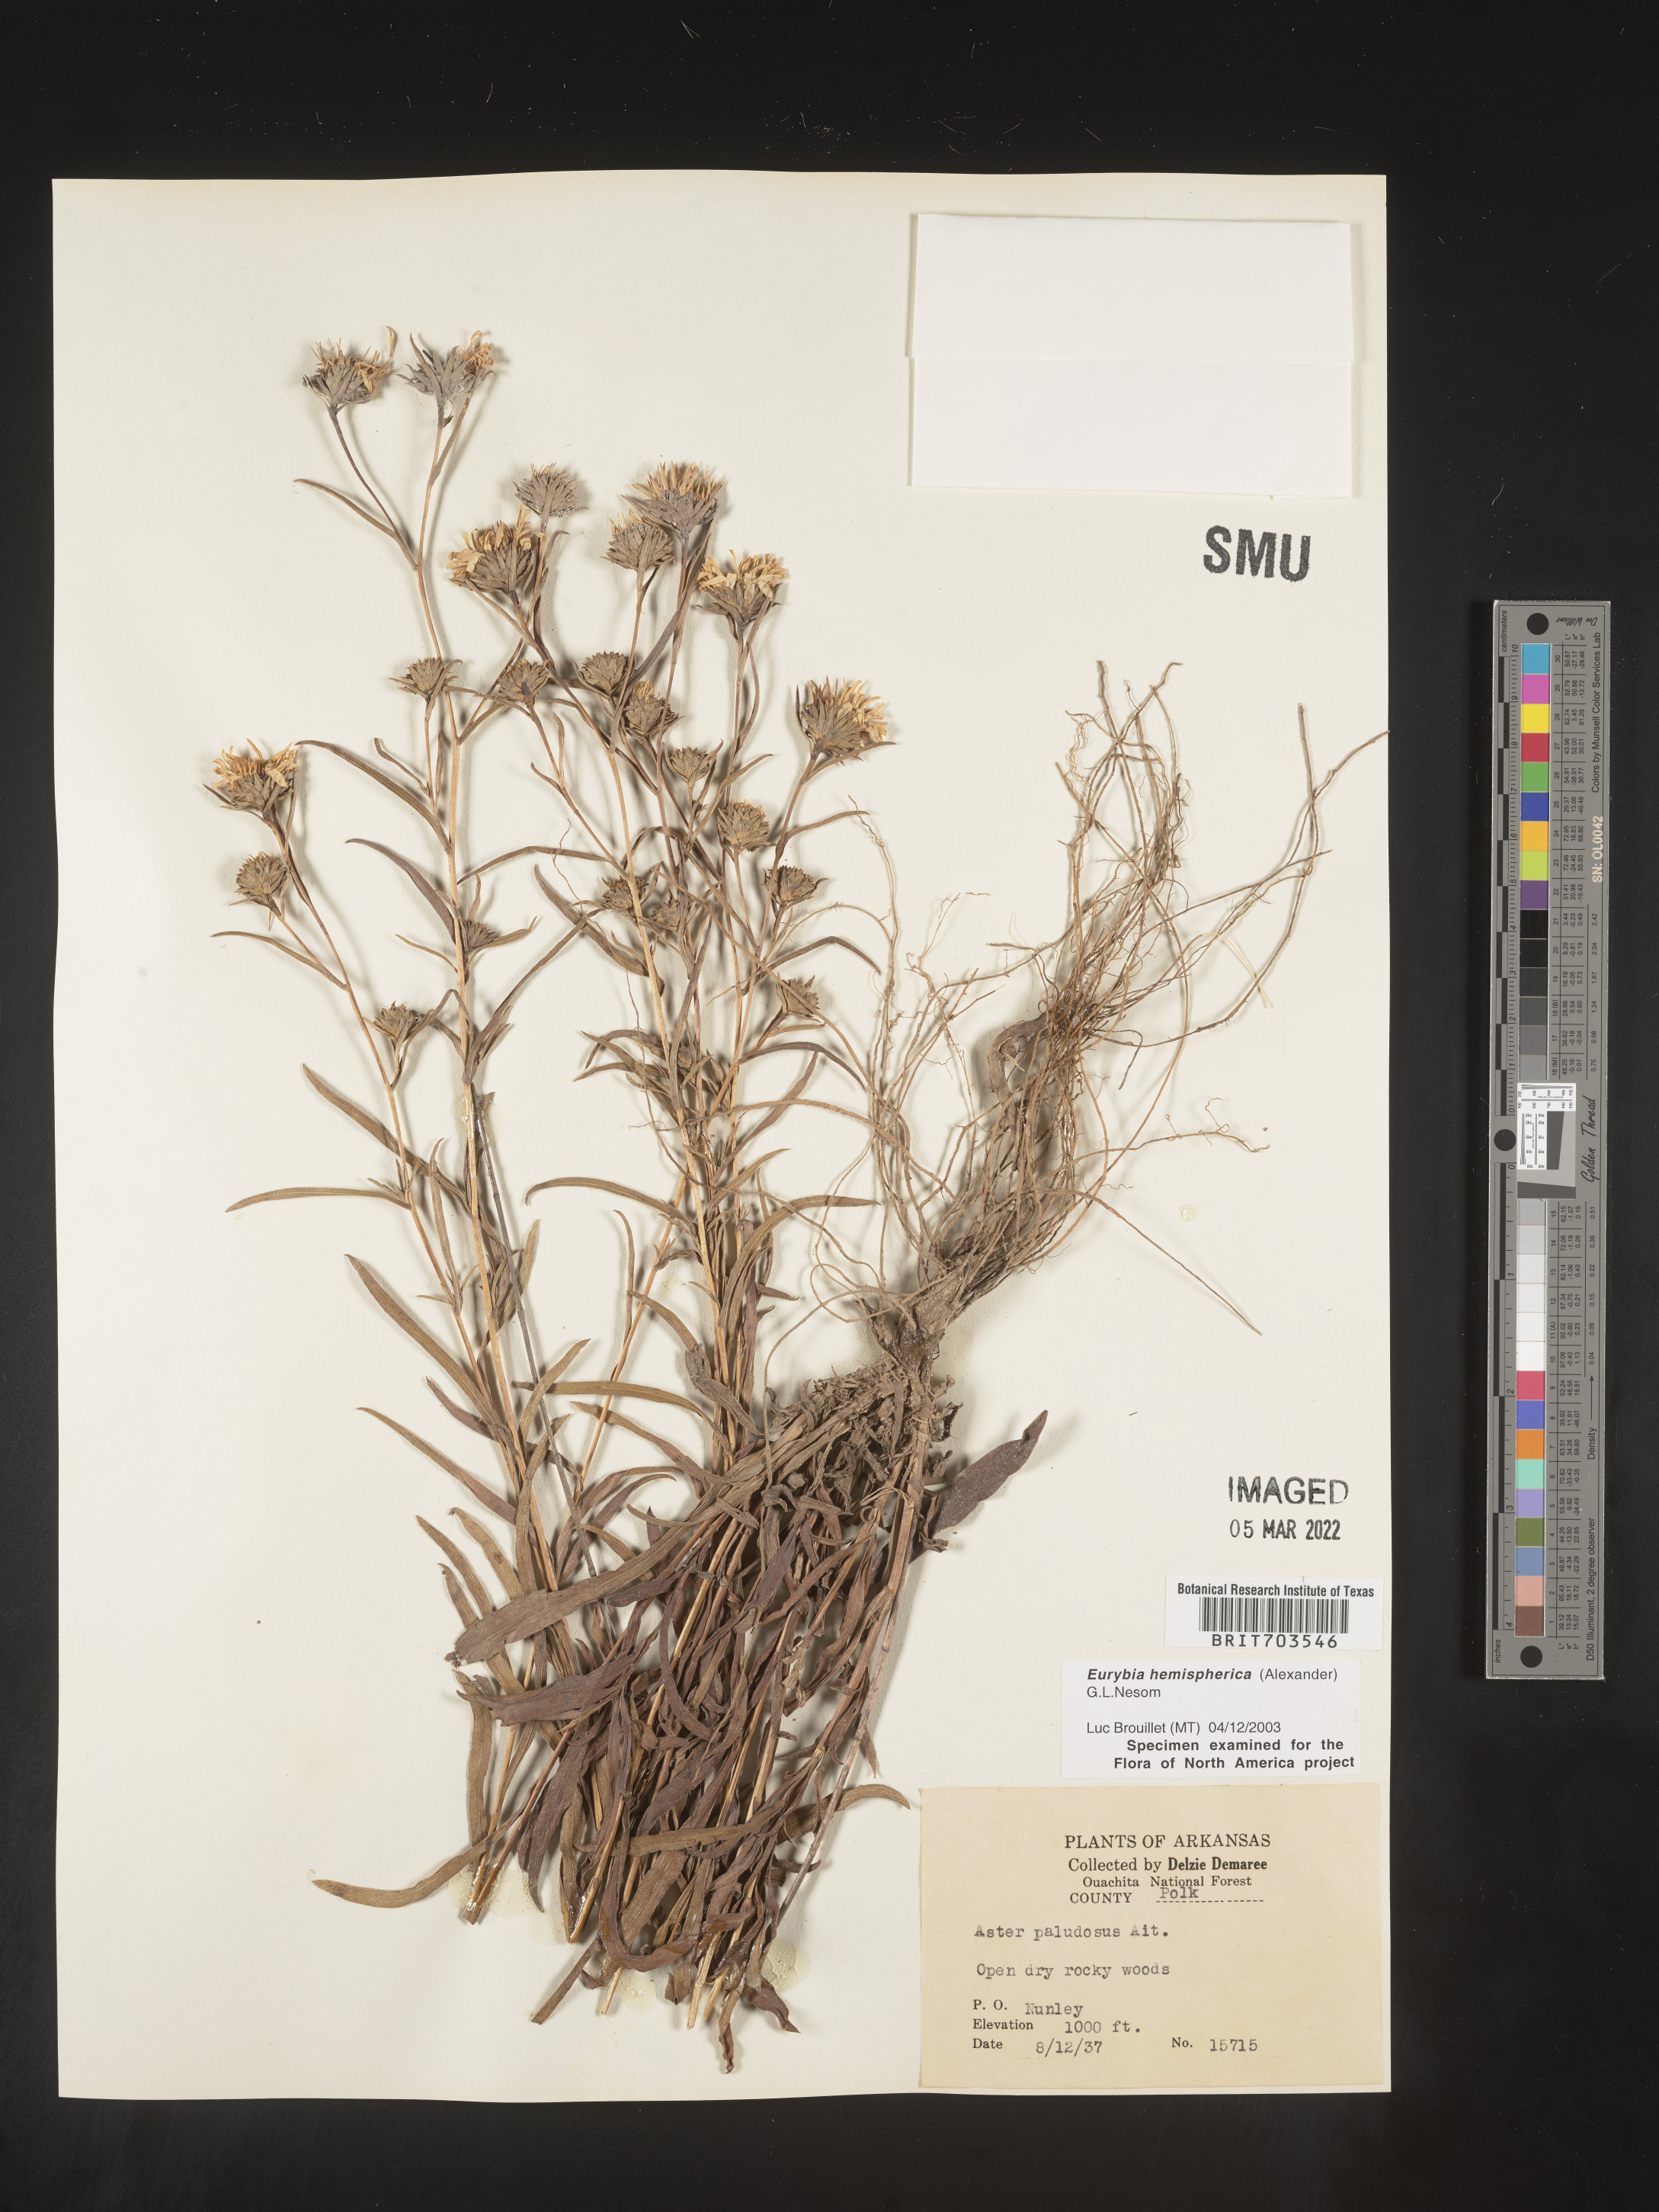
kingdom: Plantae
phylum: Tracheophyta
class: Magnoliopsida
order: Asterales
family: Asteraceae
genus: Eurybia
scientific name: Eurybia hemispherica
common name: Showy aster
